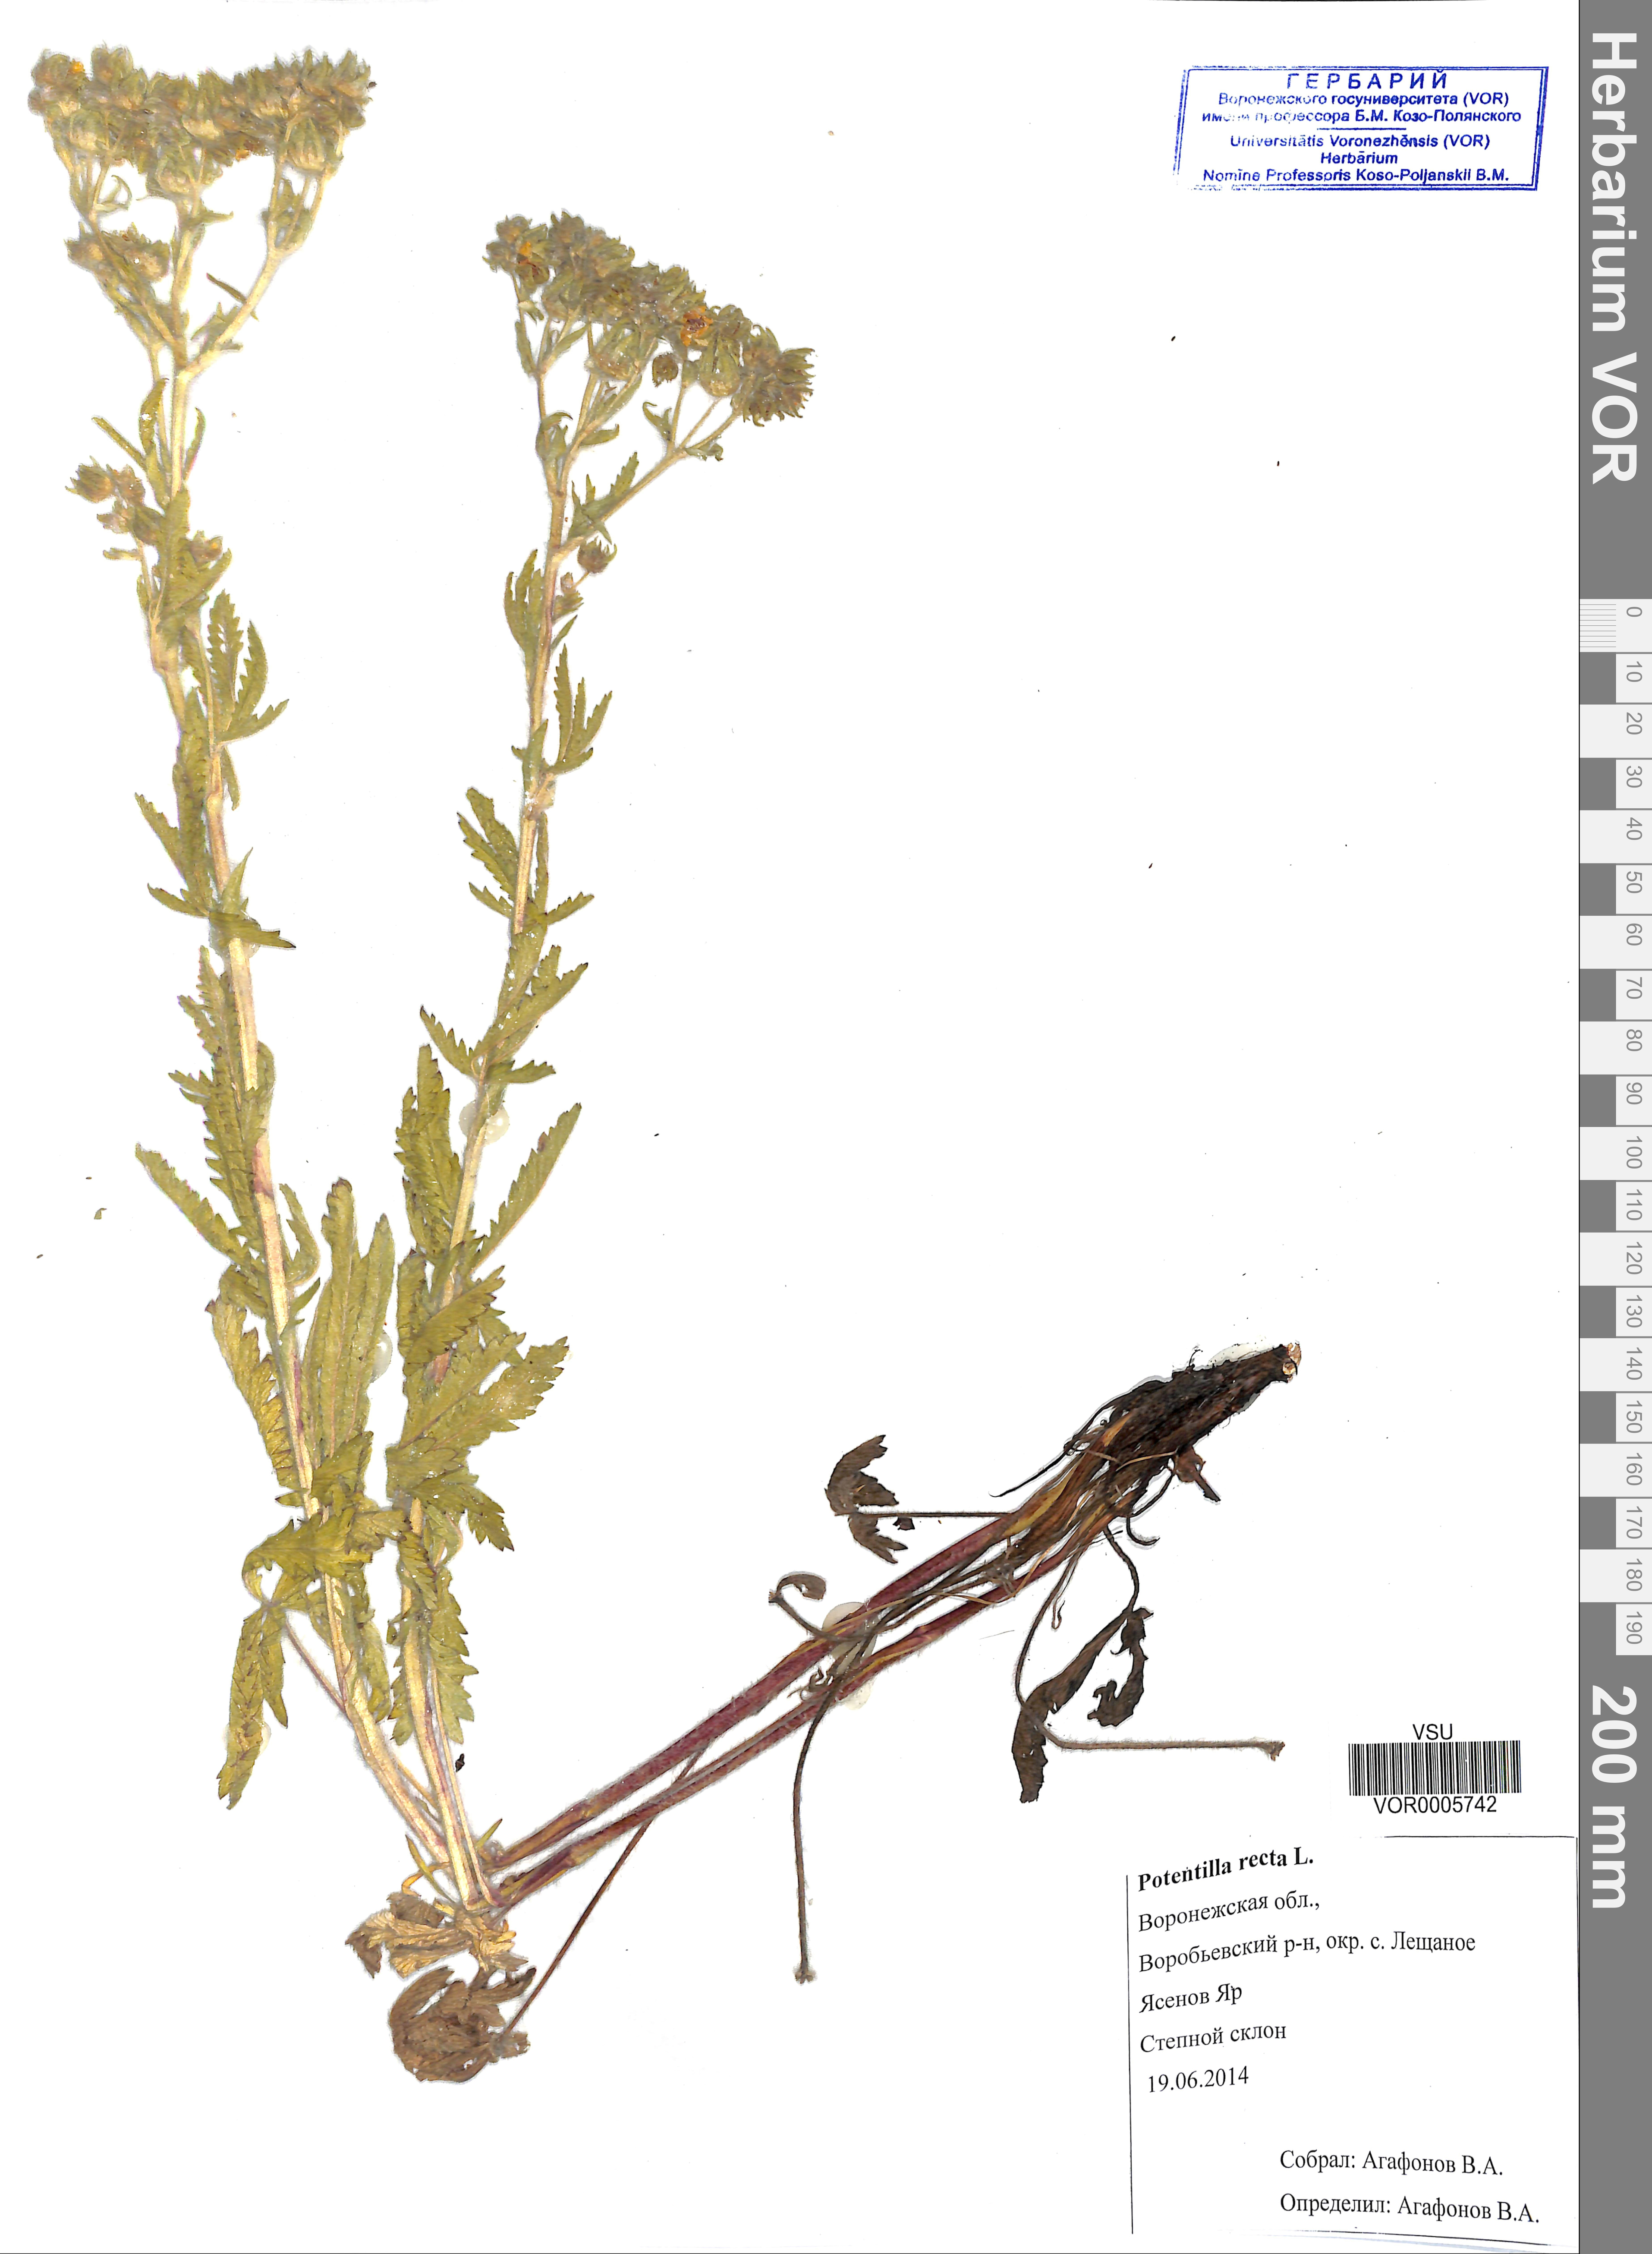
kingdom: Plantae
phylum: Tracheophyta
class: Magnoliopsida
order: Rosales
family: Rosaceae
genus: Potentilla
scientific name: Potentilla recta
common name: Sulphur cinquefoil
